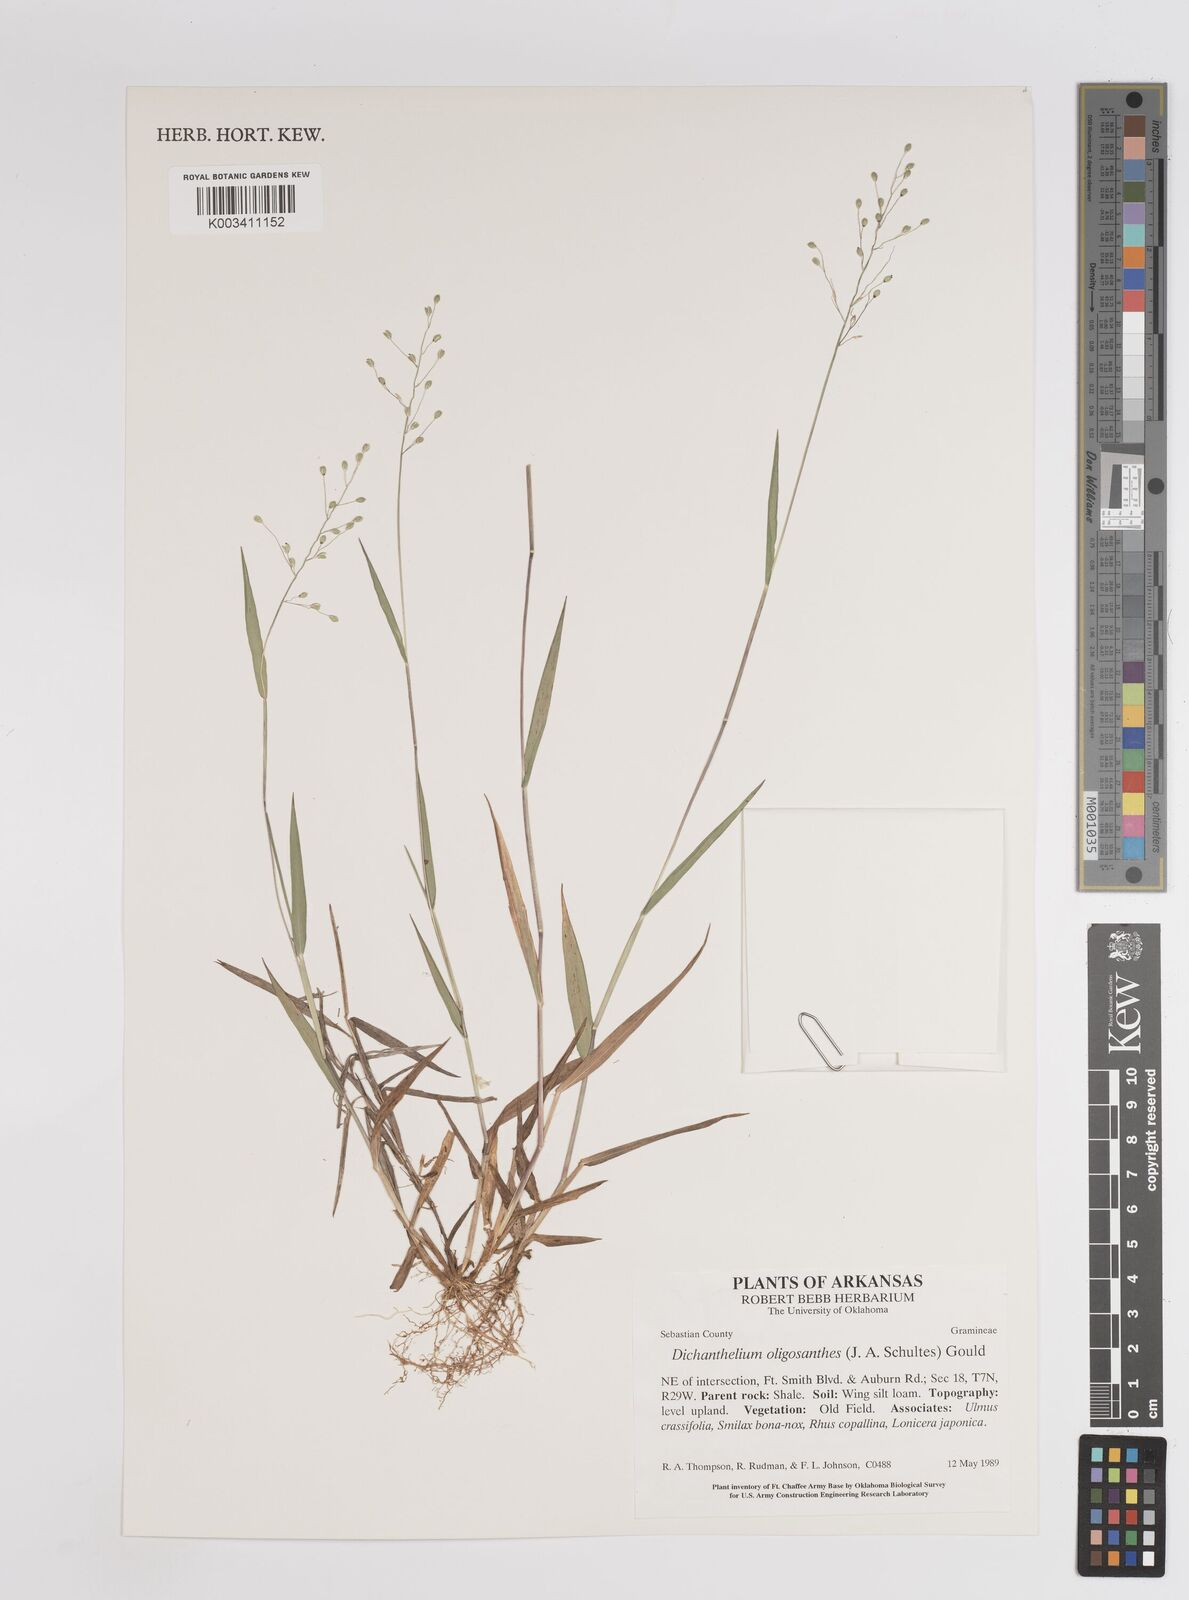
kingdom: Plantae
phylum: Tracheophyta
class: Liliopsida
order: Poales
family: Poaceae
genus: Dichanthelium
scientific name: Dichanthelium oligosanthes
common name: Few-anther obscuregrass
